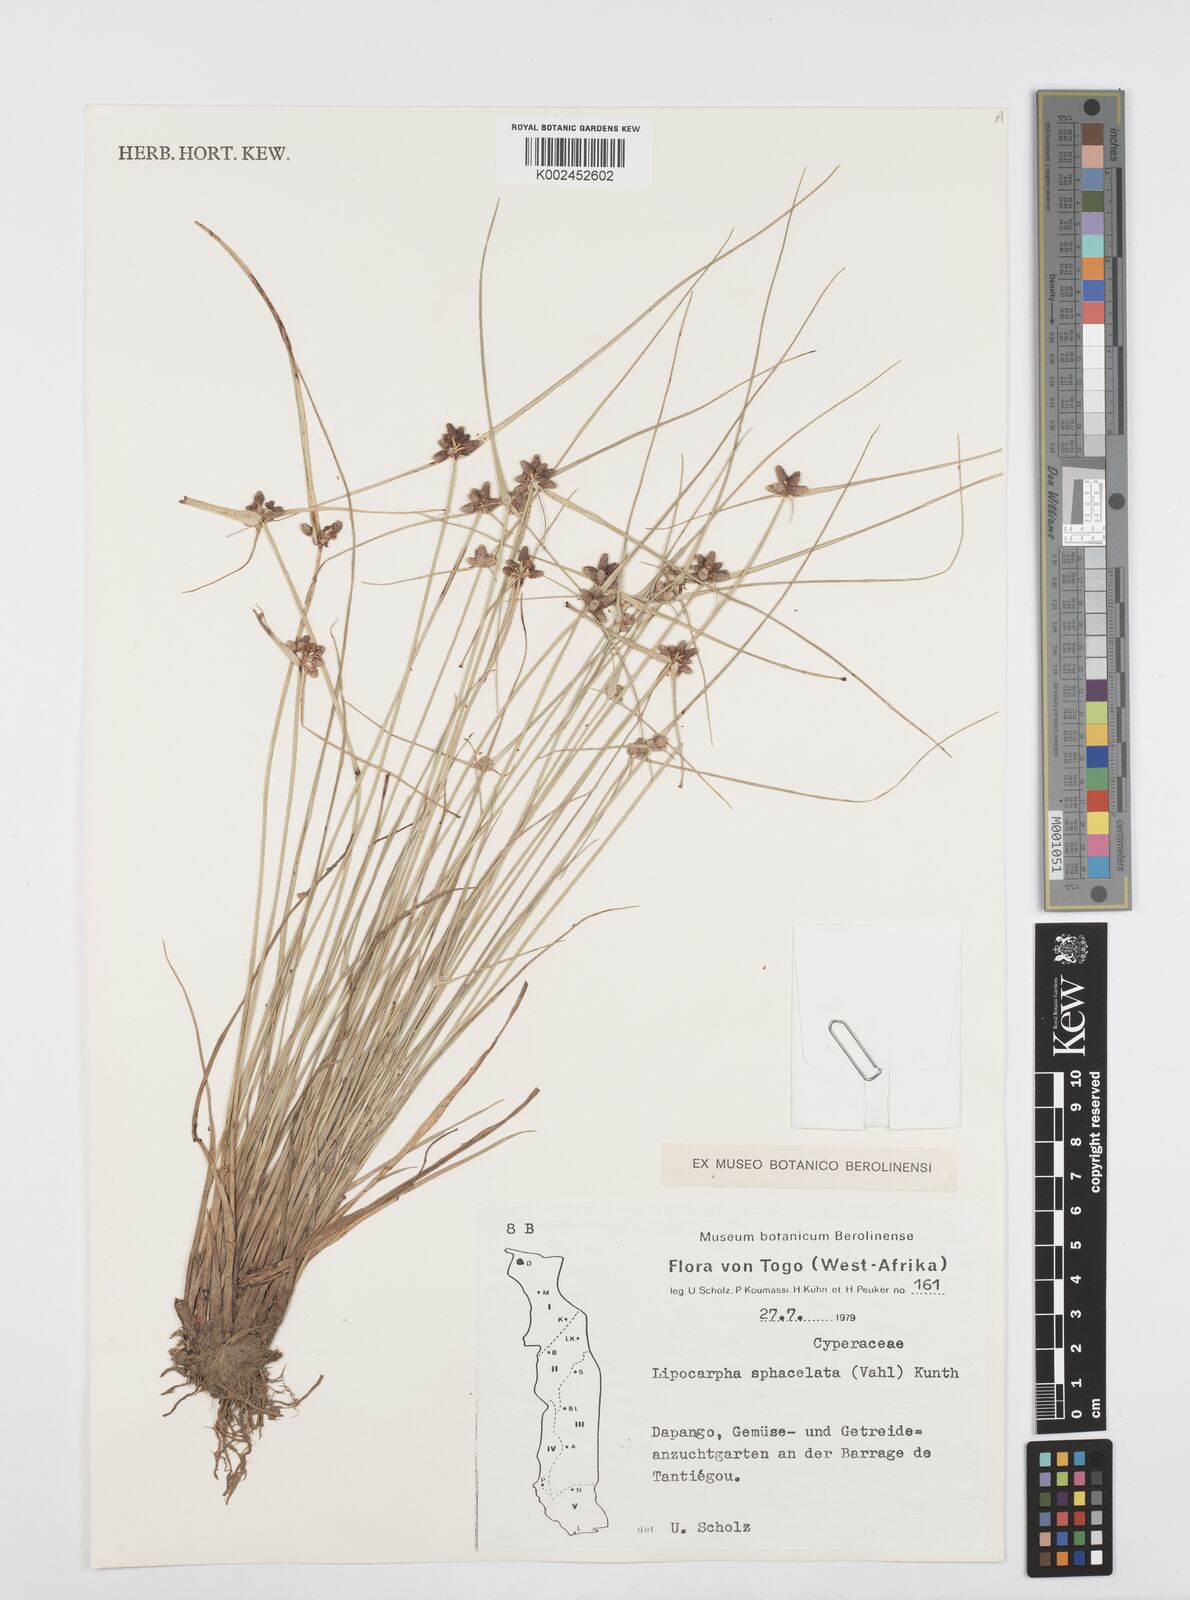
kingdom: Plantae
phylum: Tracheophyta
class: Liliopsida
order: Poales
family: Cyperaceae
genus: Cyperus
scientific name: Cyperus sphacelatus
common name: Roadside flatsedge
